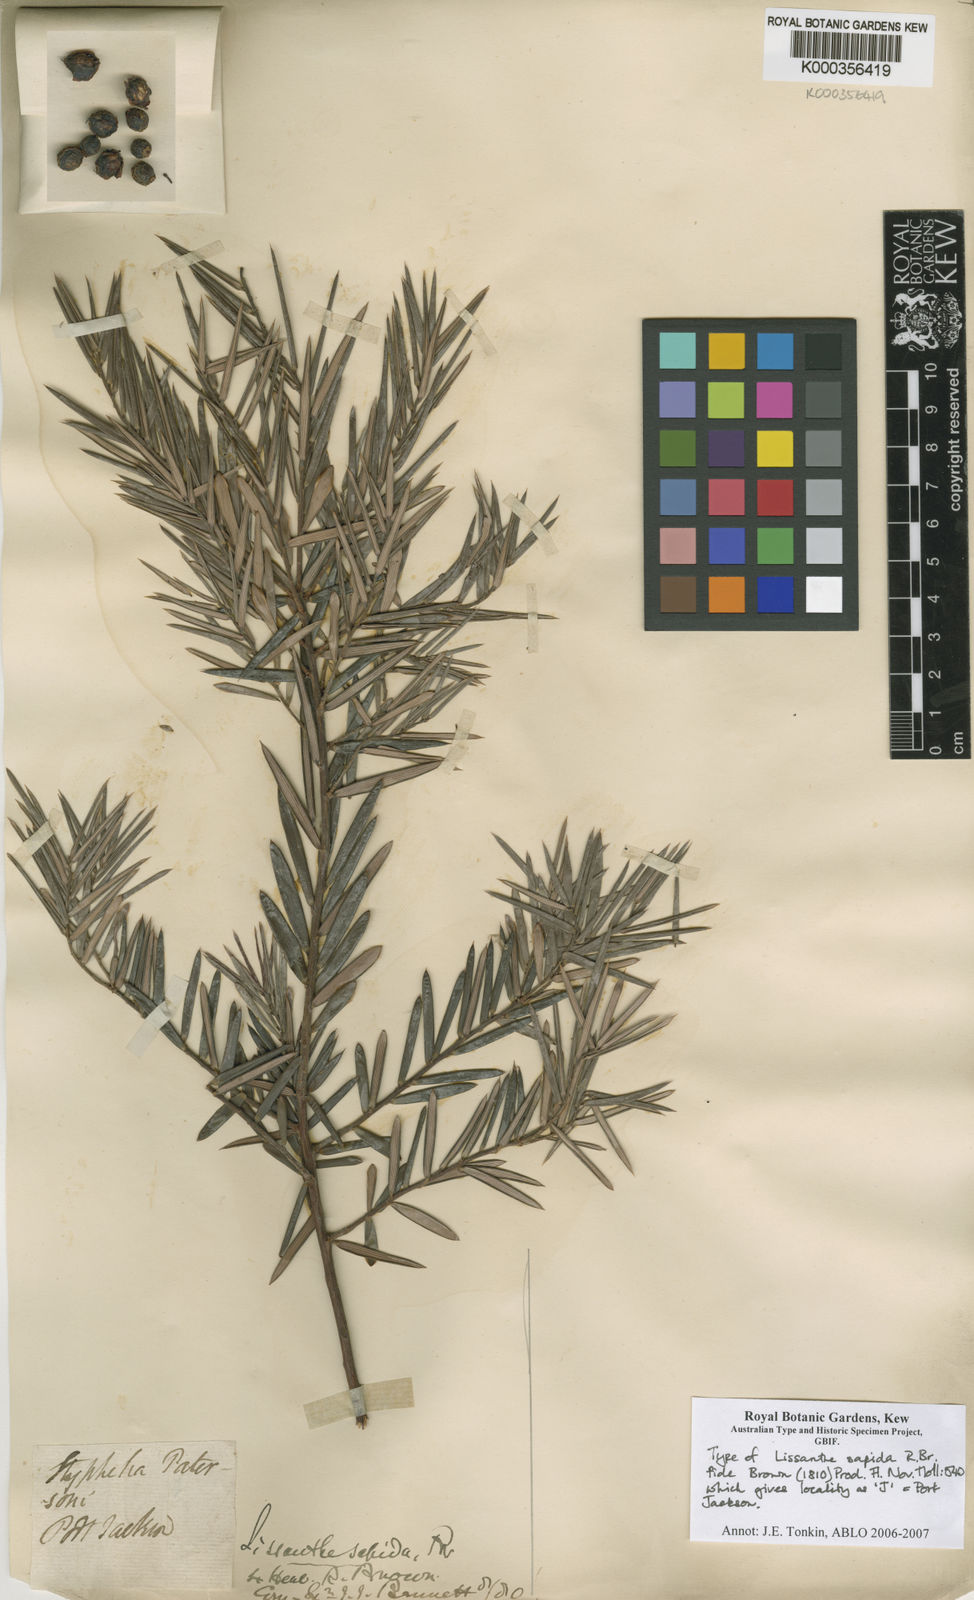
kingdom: Plantae
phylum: Tracheophyta
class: Magnoliopsida
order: Ericales
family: Ericaceae
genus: Lissanthe
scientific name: Lissanthe sapida
